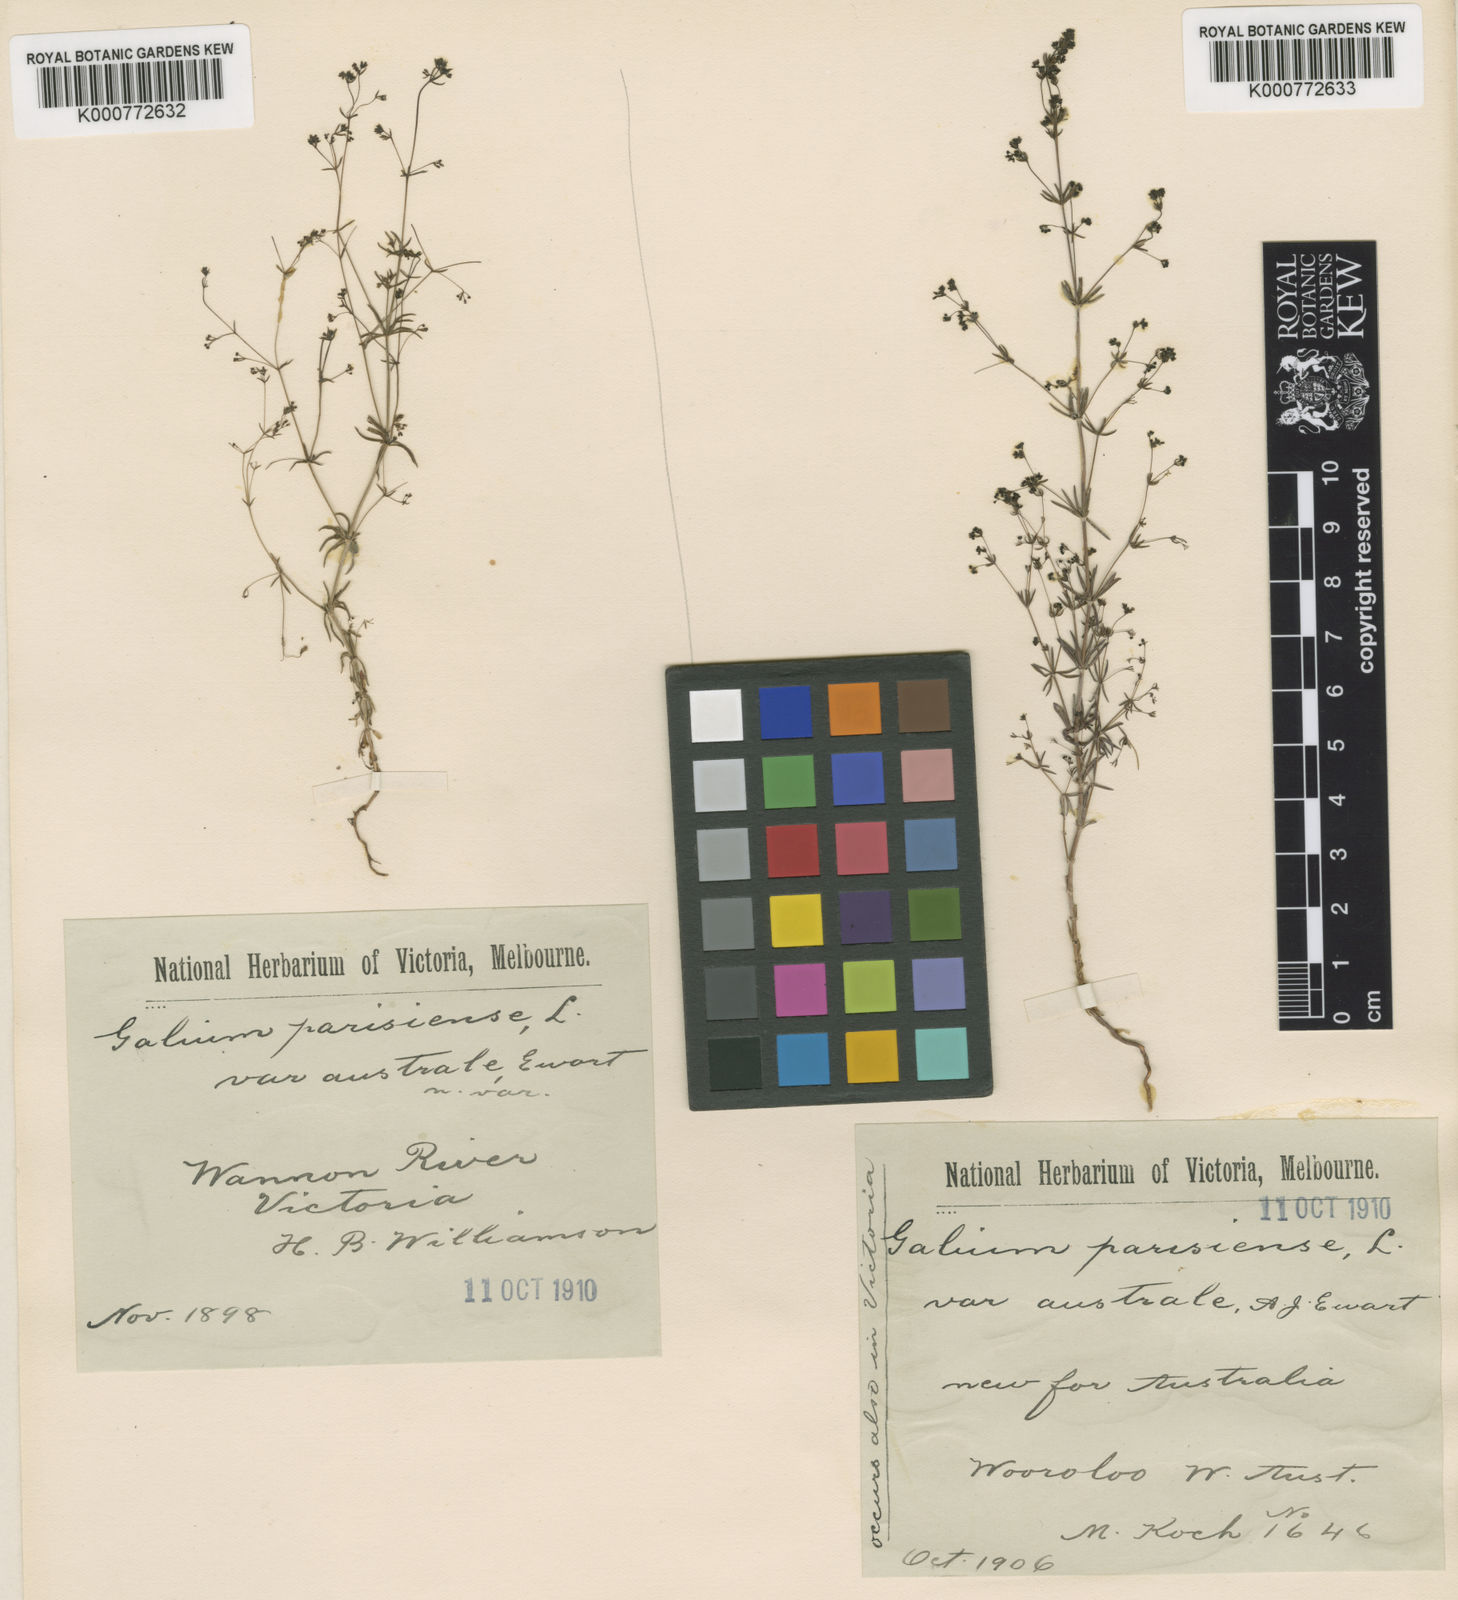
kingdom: Plantae
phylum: Tracheophyta
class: Magnoliopsida
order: Gentianales
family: Rubiaceae
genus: Galium
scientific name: Galium divaricatum
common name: Lamarck's bedstraw
